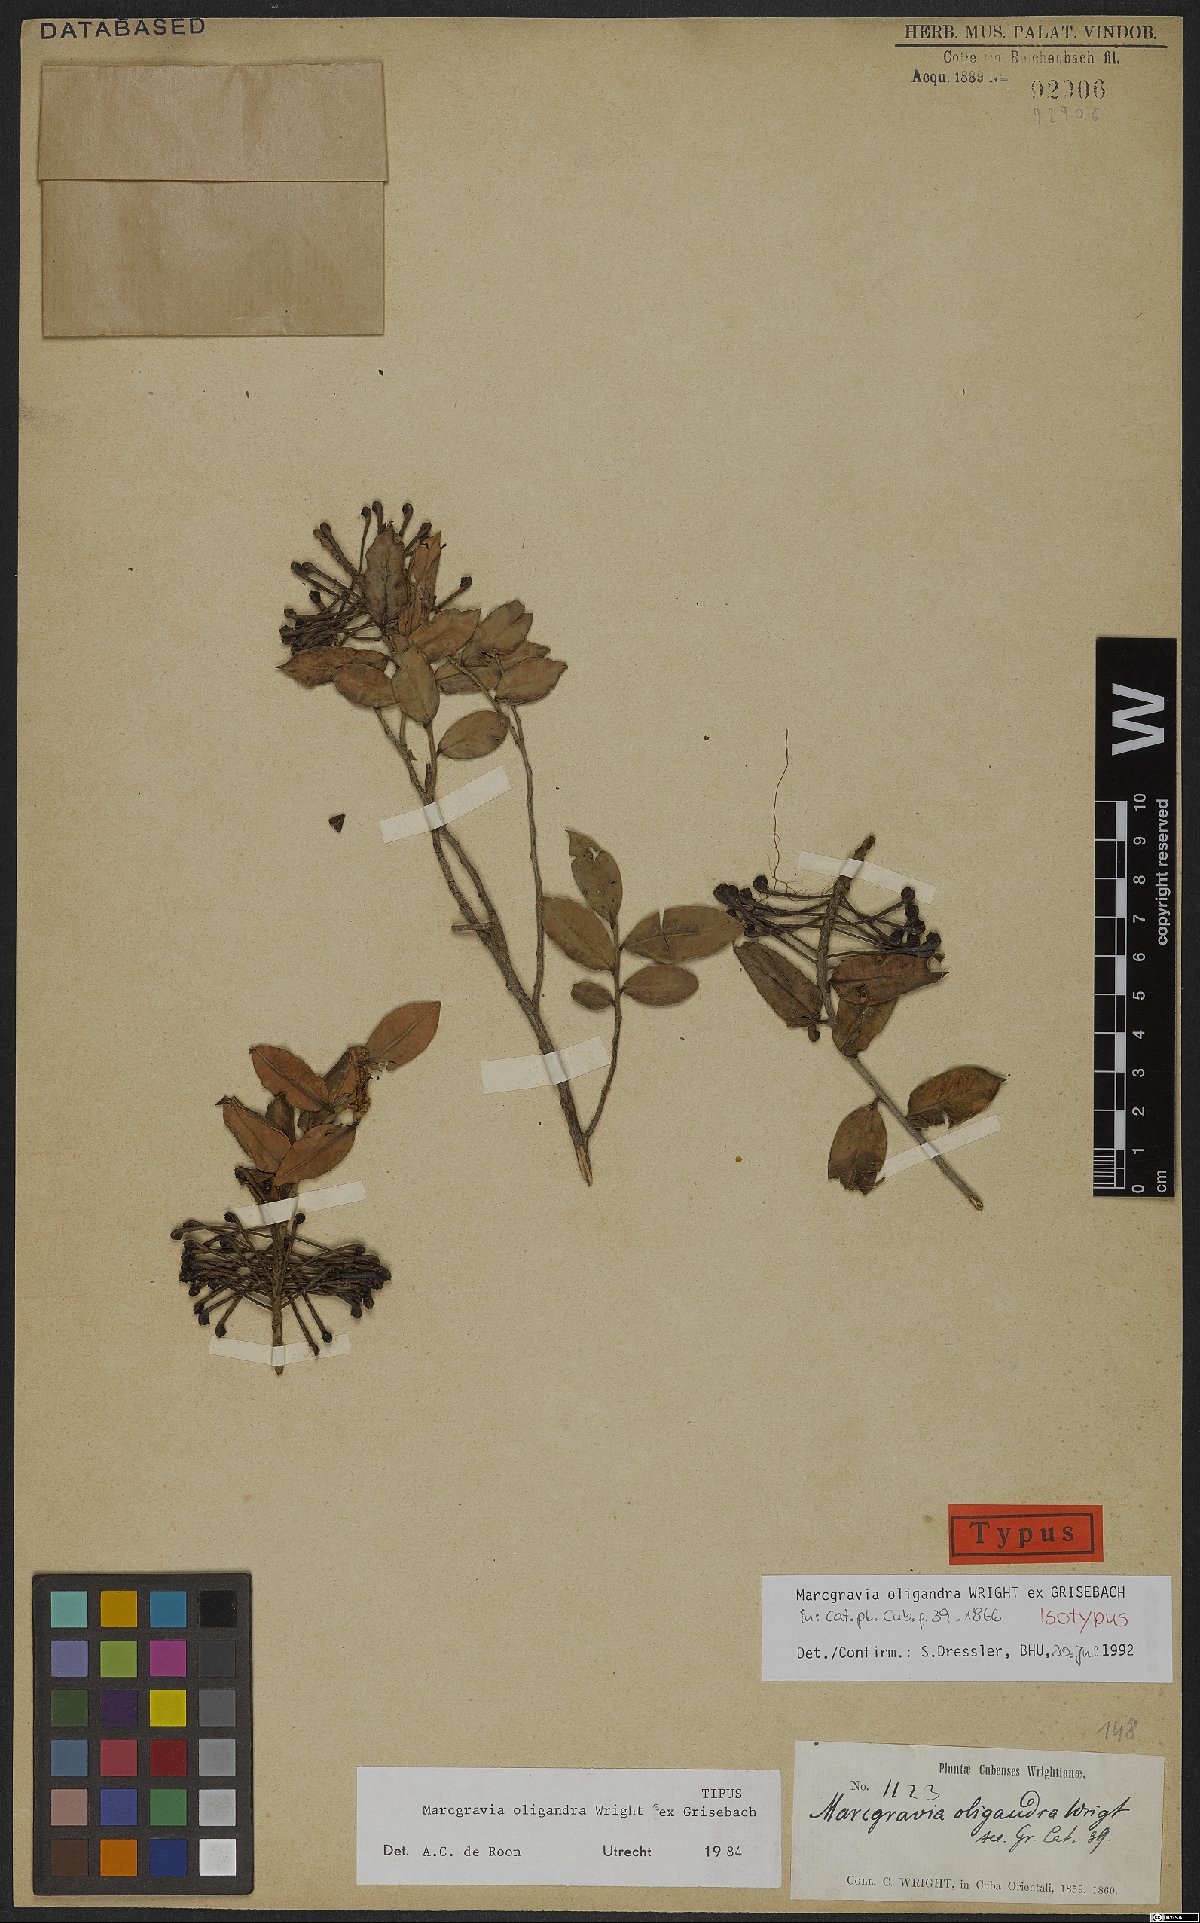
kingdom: Plantae
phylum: Tracheophyta
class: Magnoliopsida
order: Ericales
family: Marcgraviaceae
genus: Marcgravia
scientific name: Marcgravia oligandra
